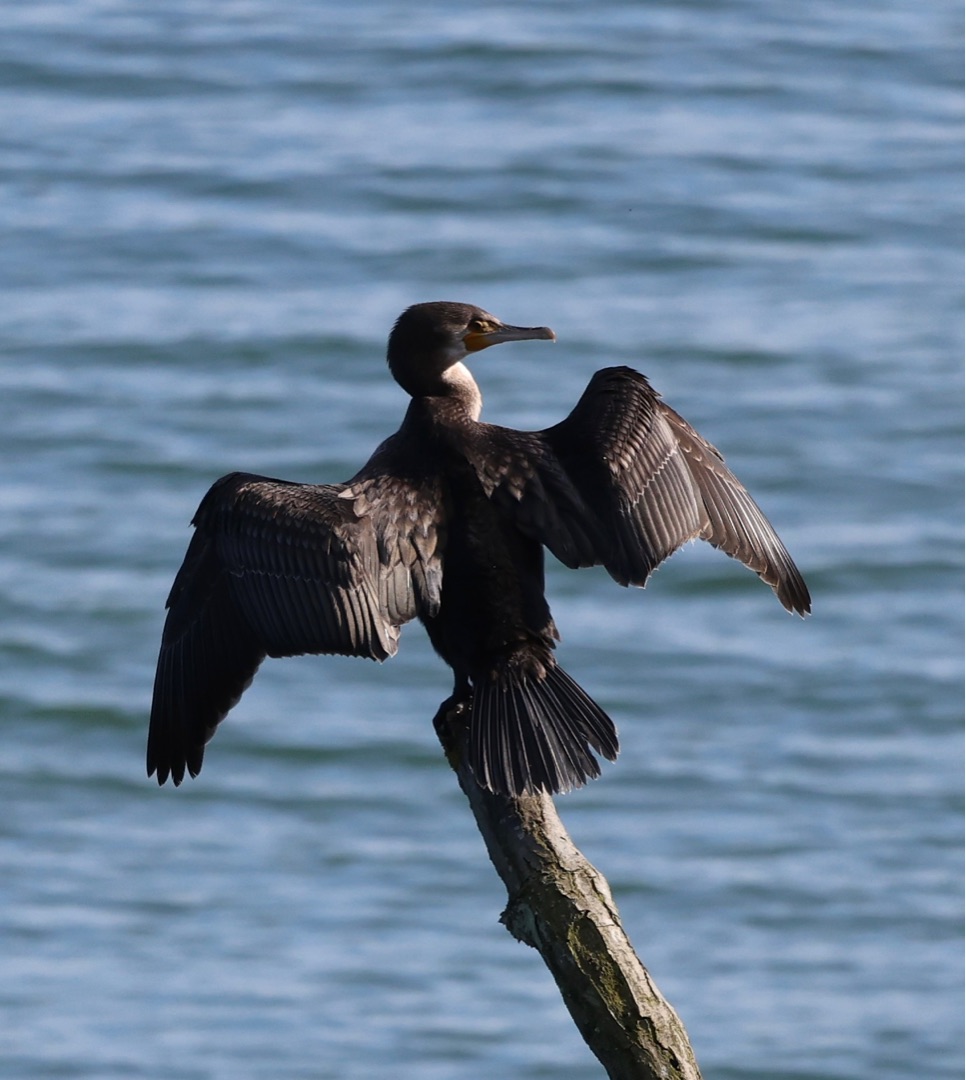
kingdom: Animalia
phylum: Chordata
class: Aves
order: Suliformes
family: Phalacrocoracidae
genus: Phalacrocorax
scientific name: Phalacrocorax carbo
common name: Skarv
